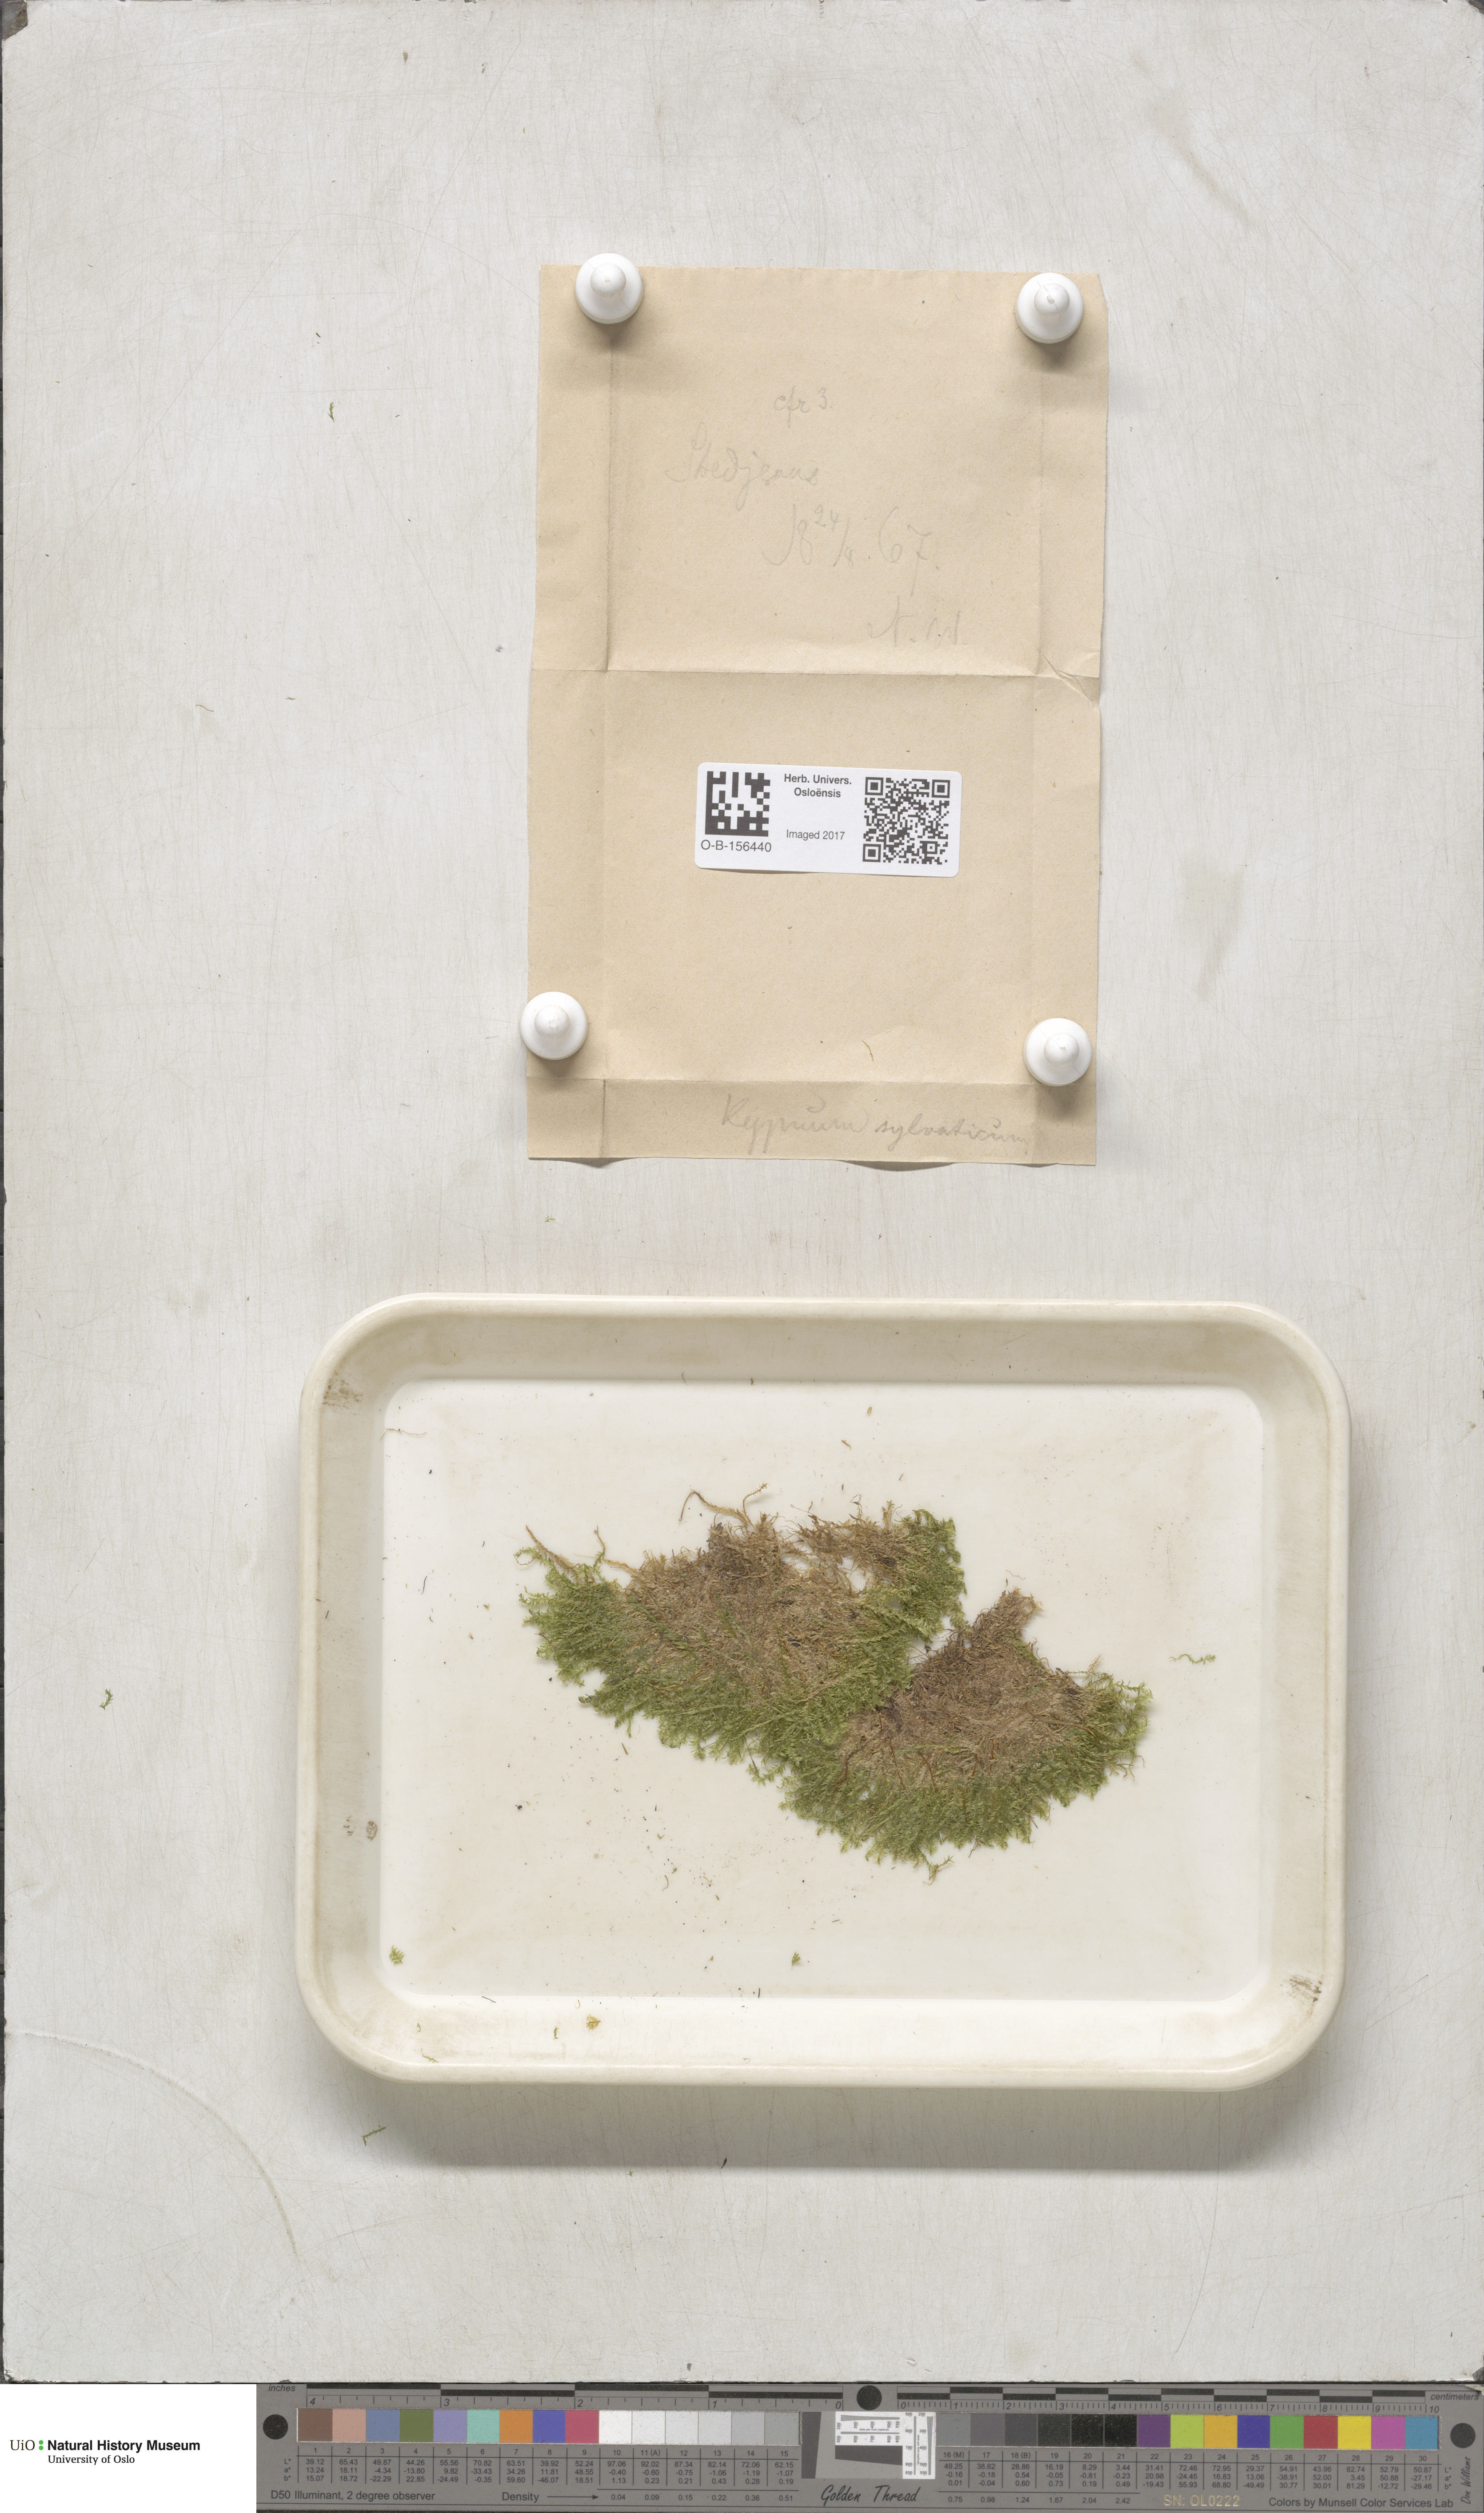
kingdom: Plantae
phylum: Bryophyta
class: Bryopsida
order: Hypnales
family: Plagiotheciaceae
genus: Plagiothecium
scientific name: Plagiothecium nemorale
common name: Woodsy silk-moss
